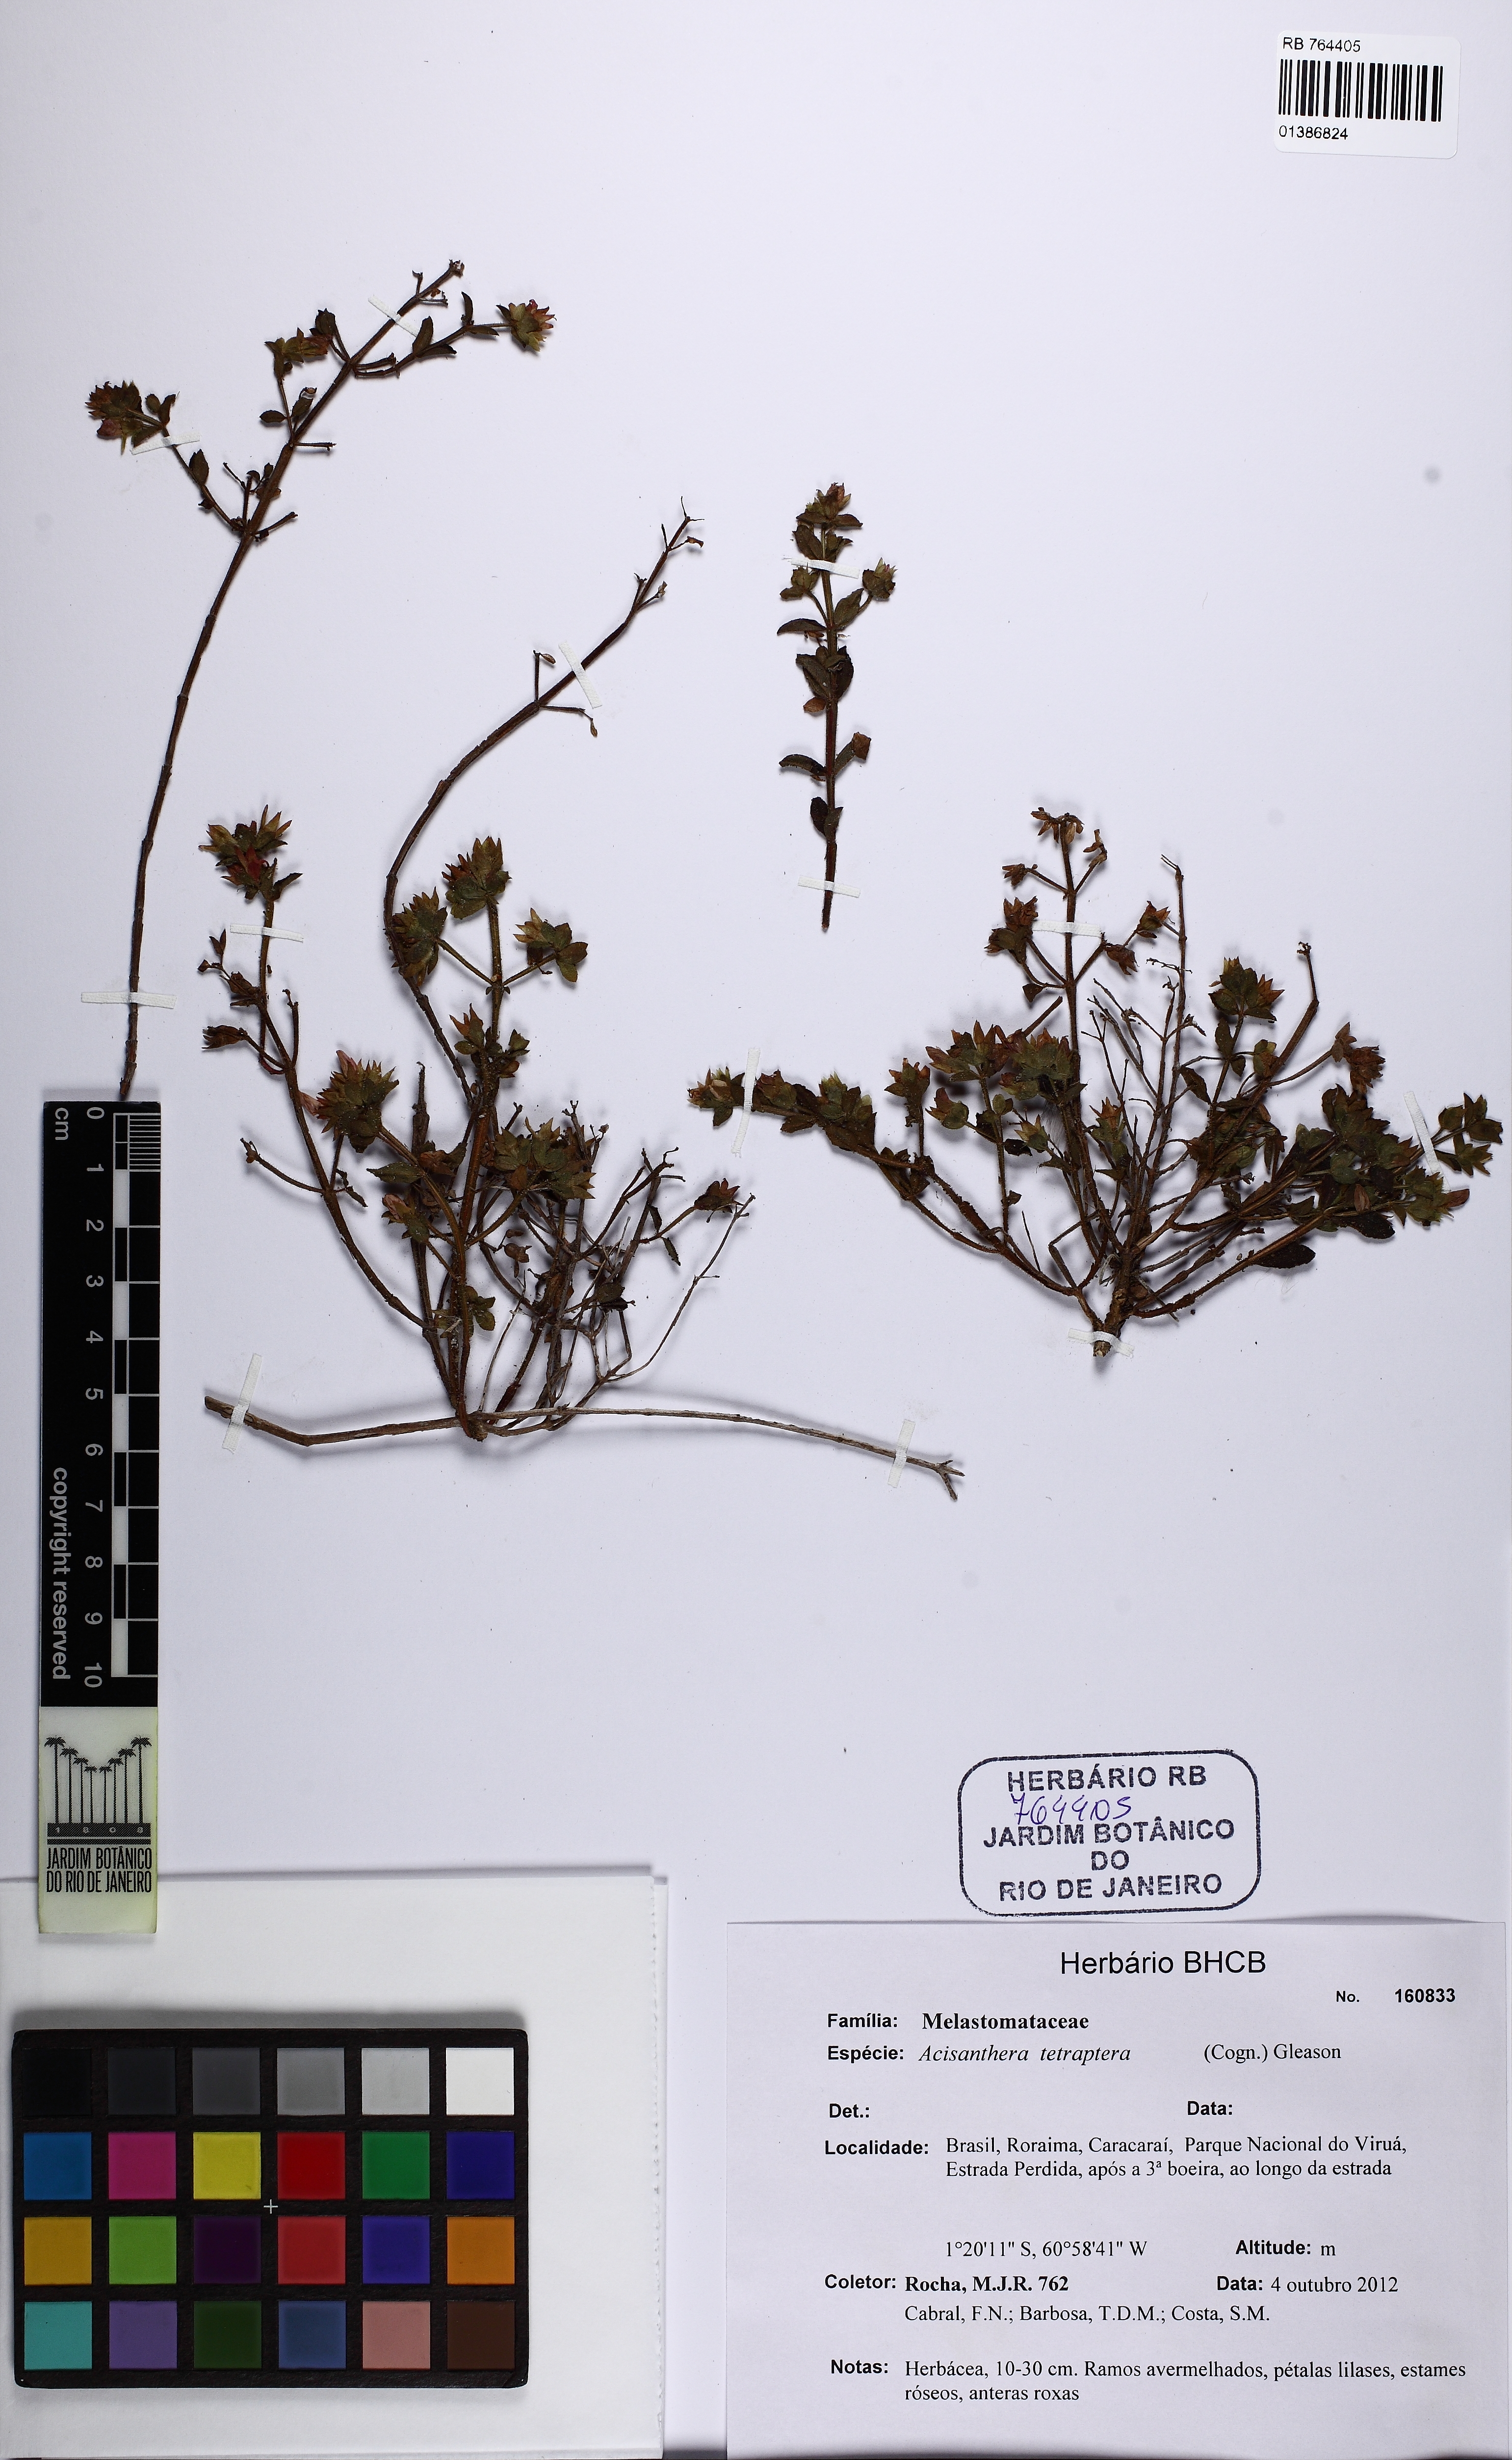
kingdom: Plantae
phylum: Tracheophyta
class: Magnoliopsida
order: Myrtales
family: Melastomataceae
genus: Rostranthera
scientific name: Rostranthera tetraptera
